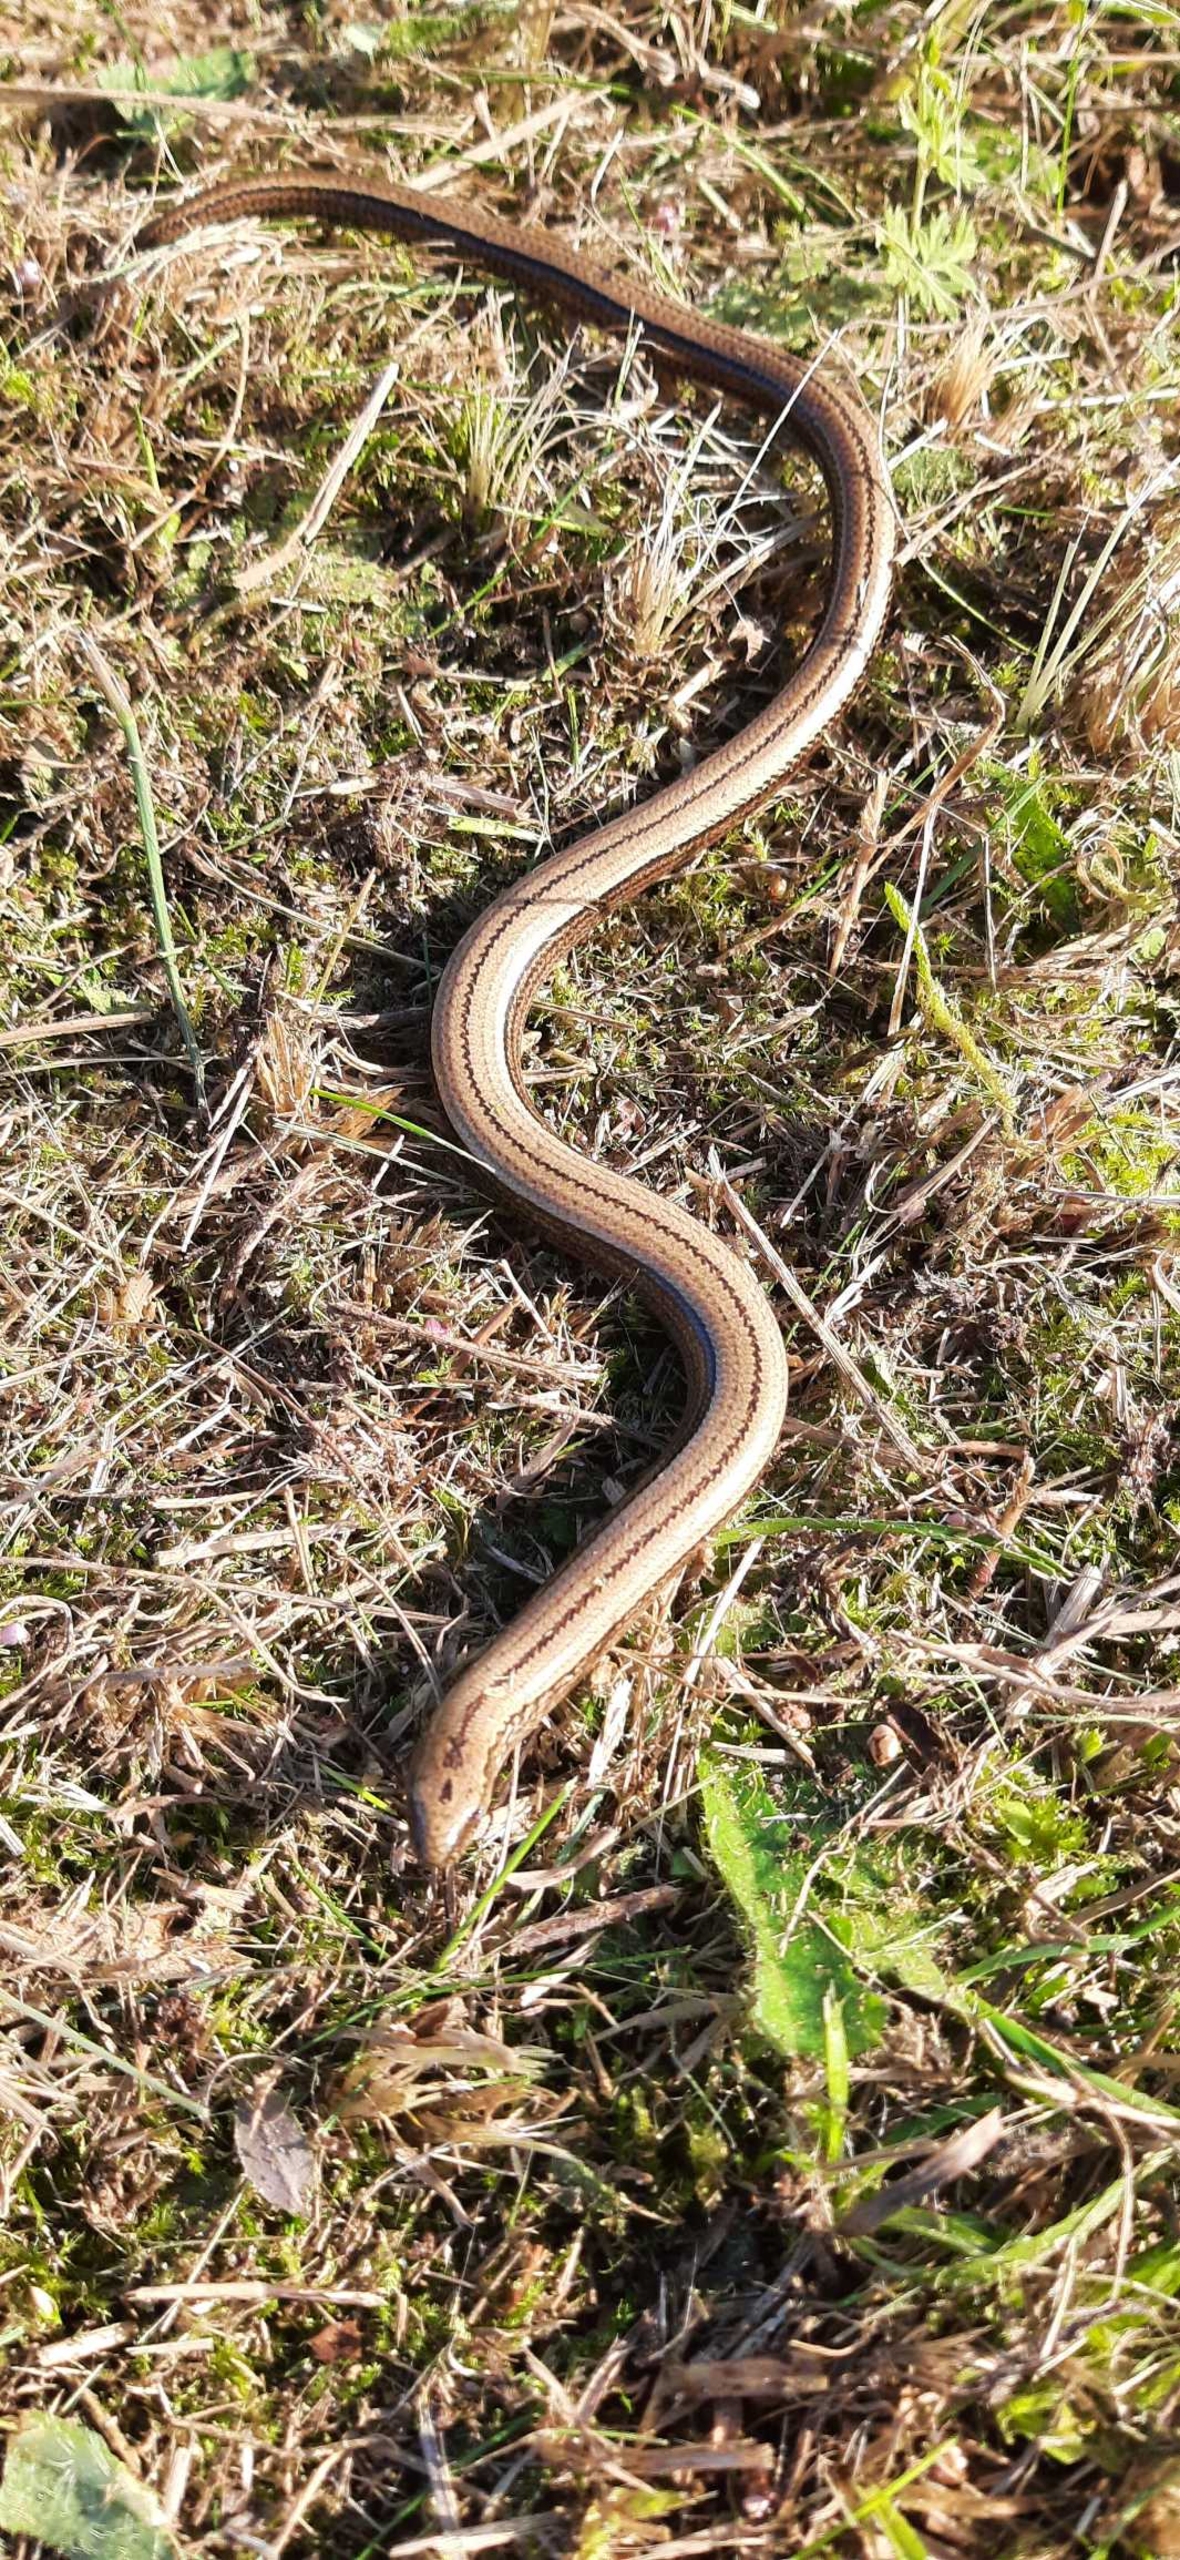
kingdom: Animalia
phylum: Chordata
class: Squamata
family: Anguidae
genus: Anguis
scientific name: Anguis fragilis
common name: Stålorm
